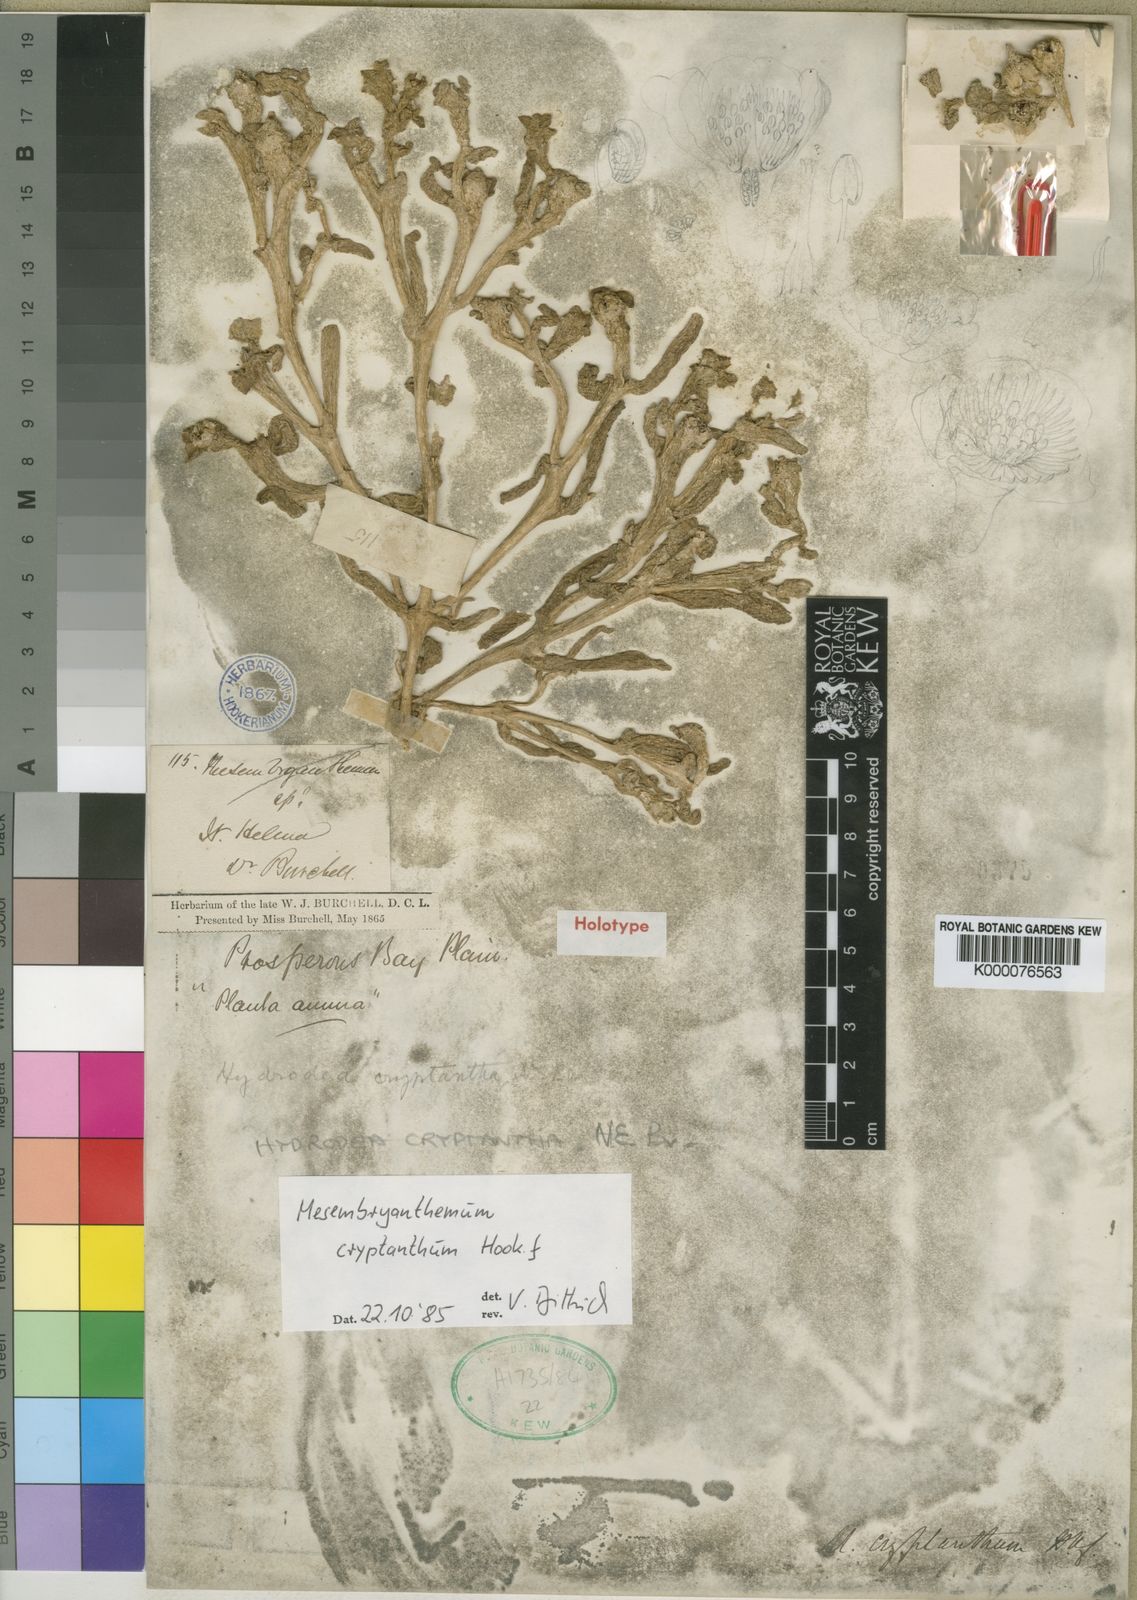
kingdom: Plantae
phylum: Tracheophyta
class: Magnoliopsida
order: Caryophyllales
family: Aizoaceae
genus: Mesembryanthemum
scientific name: Mesembryanthemum cryptanthum
